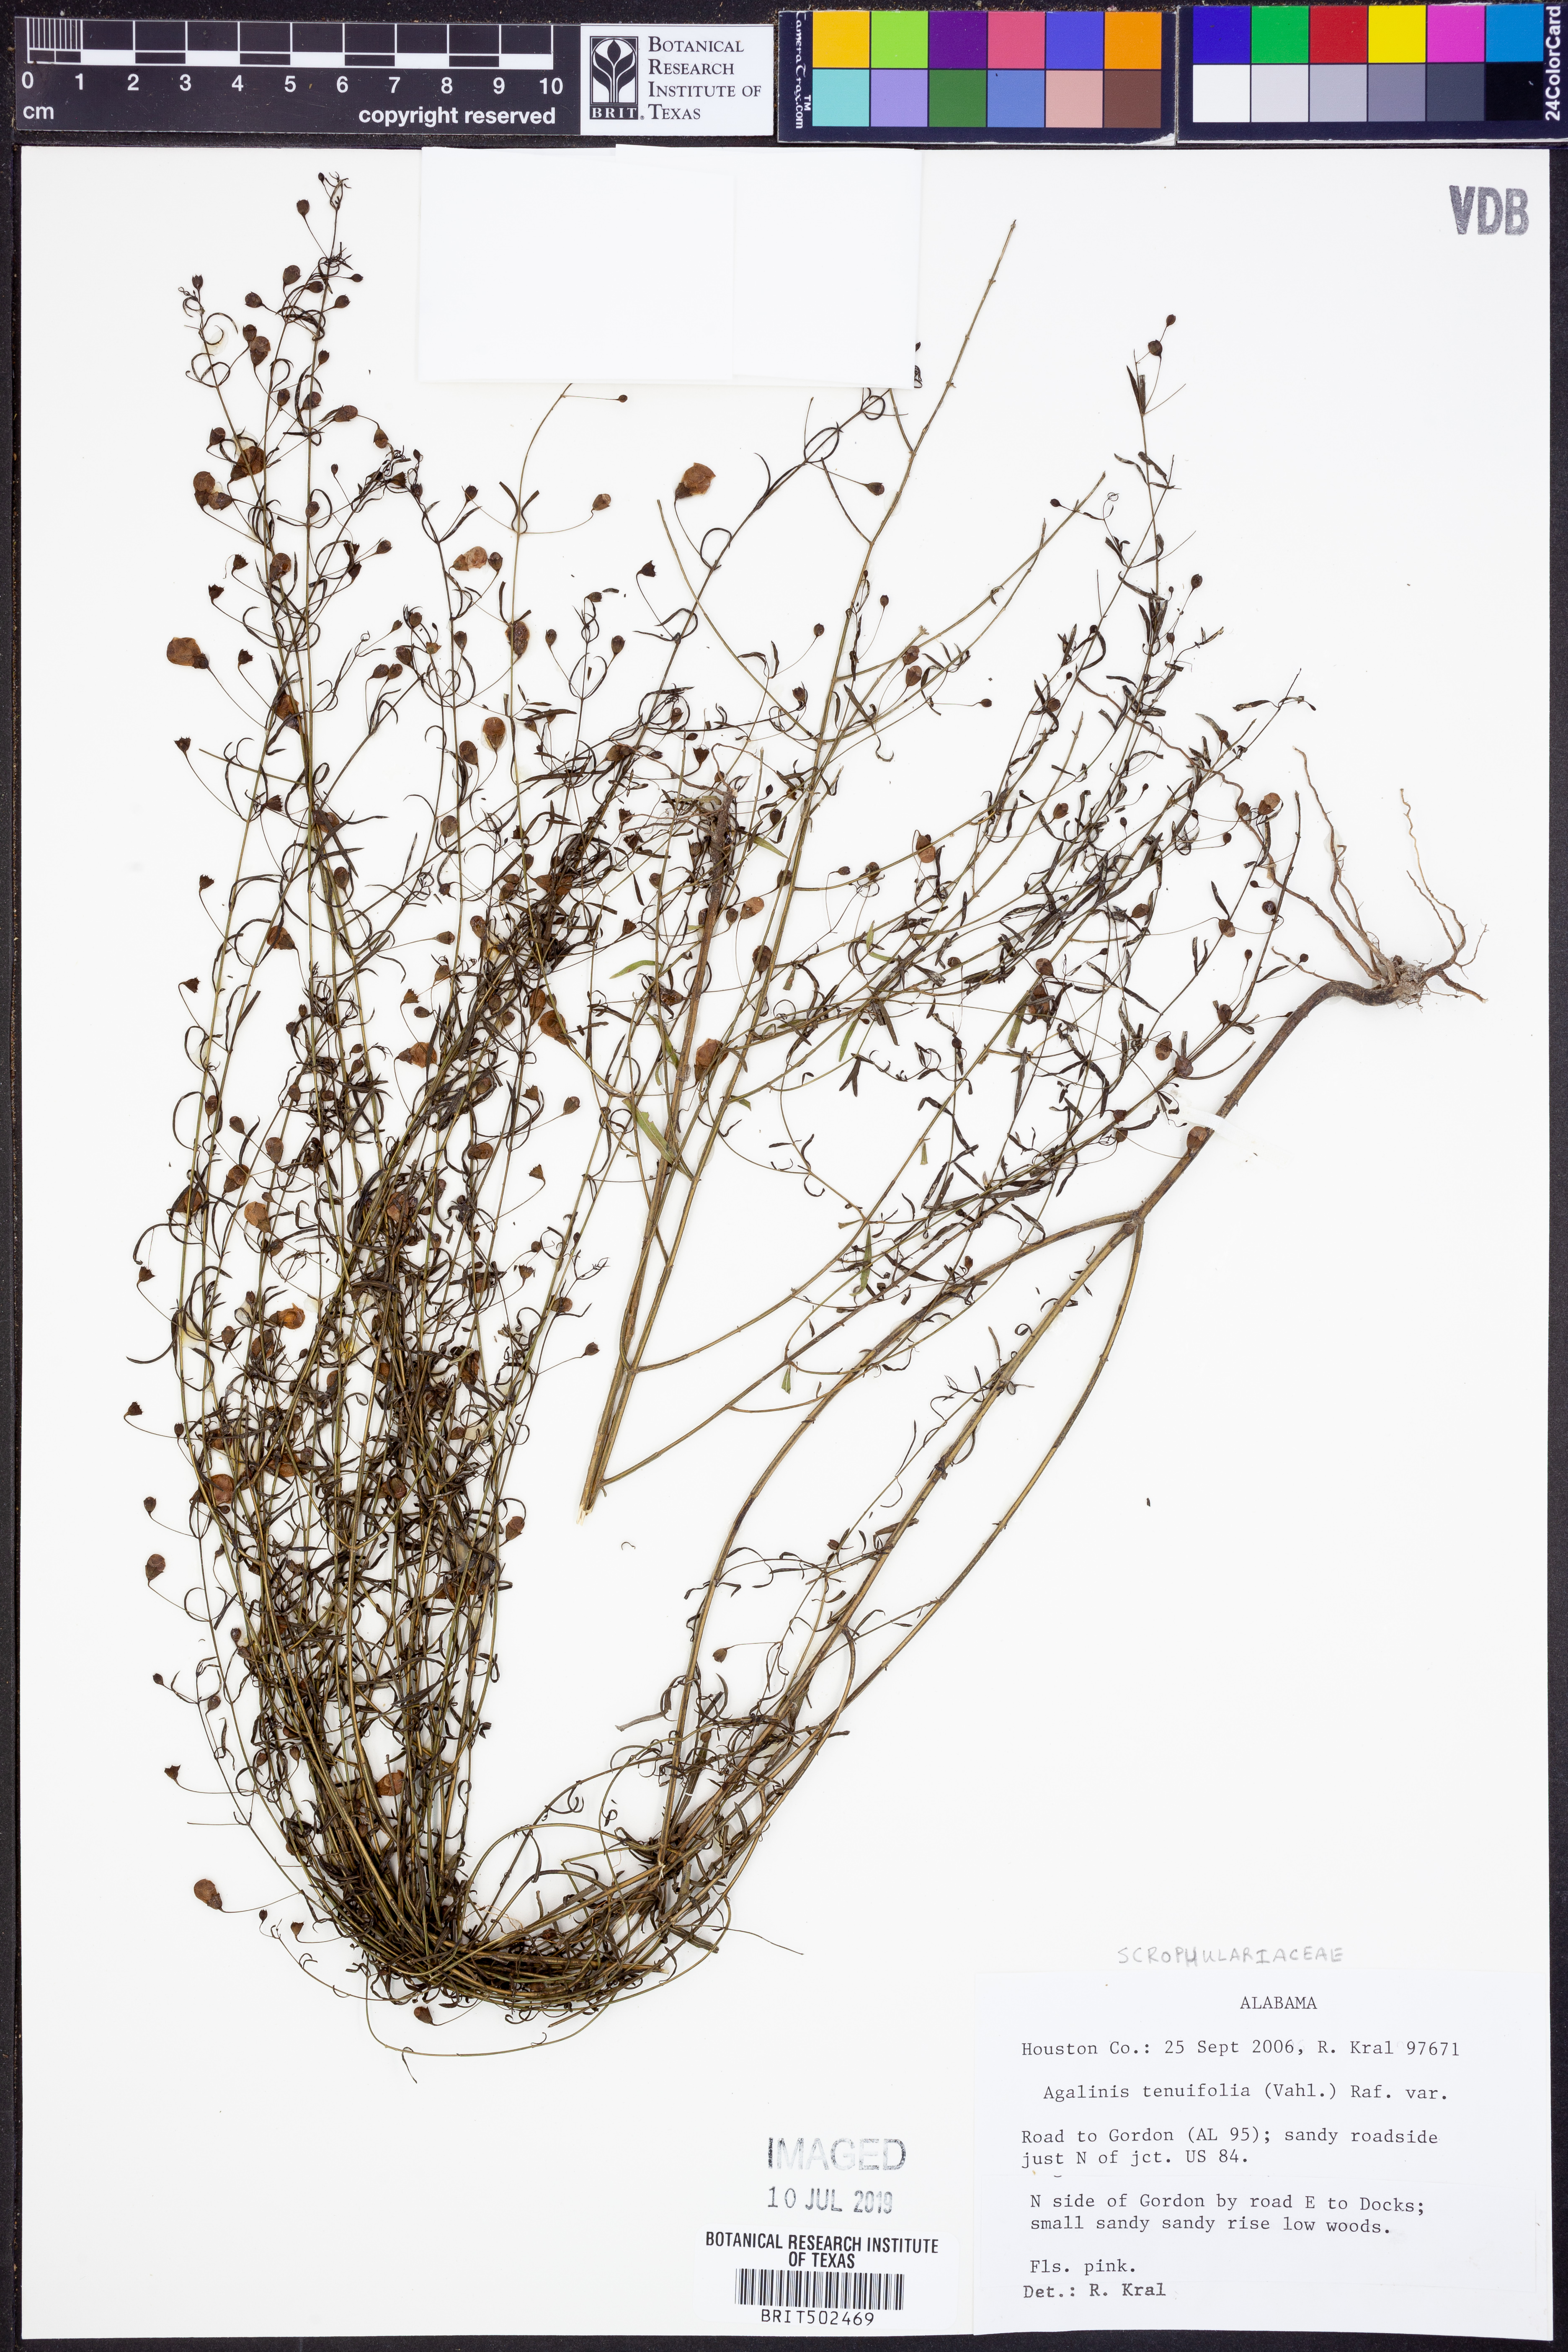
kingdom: Plantae
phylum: Tracheophyta
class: Magnoliopsida
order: Lamiales
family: Orobanchaceae
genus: Agalinis
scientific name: Agalinis tenuifolia
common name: Slender agalinis
